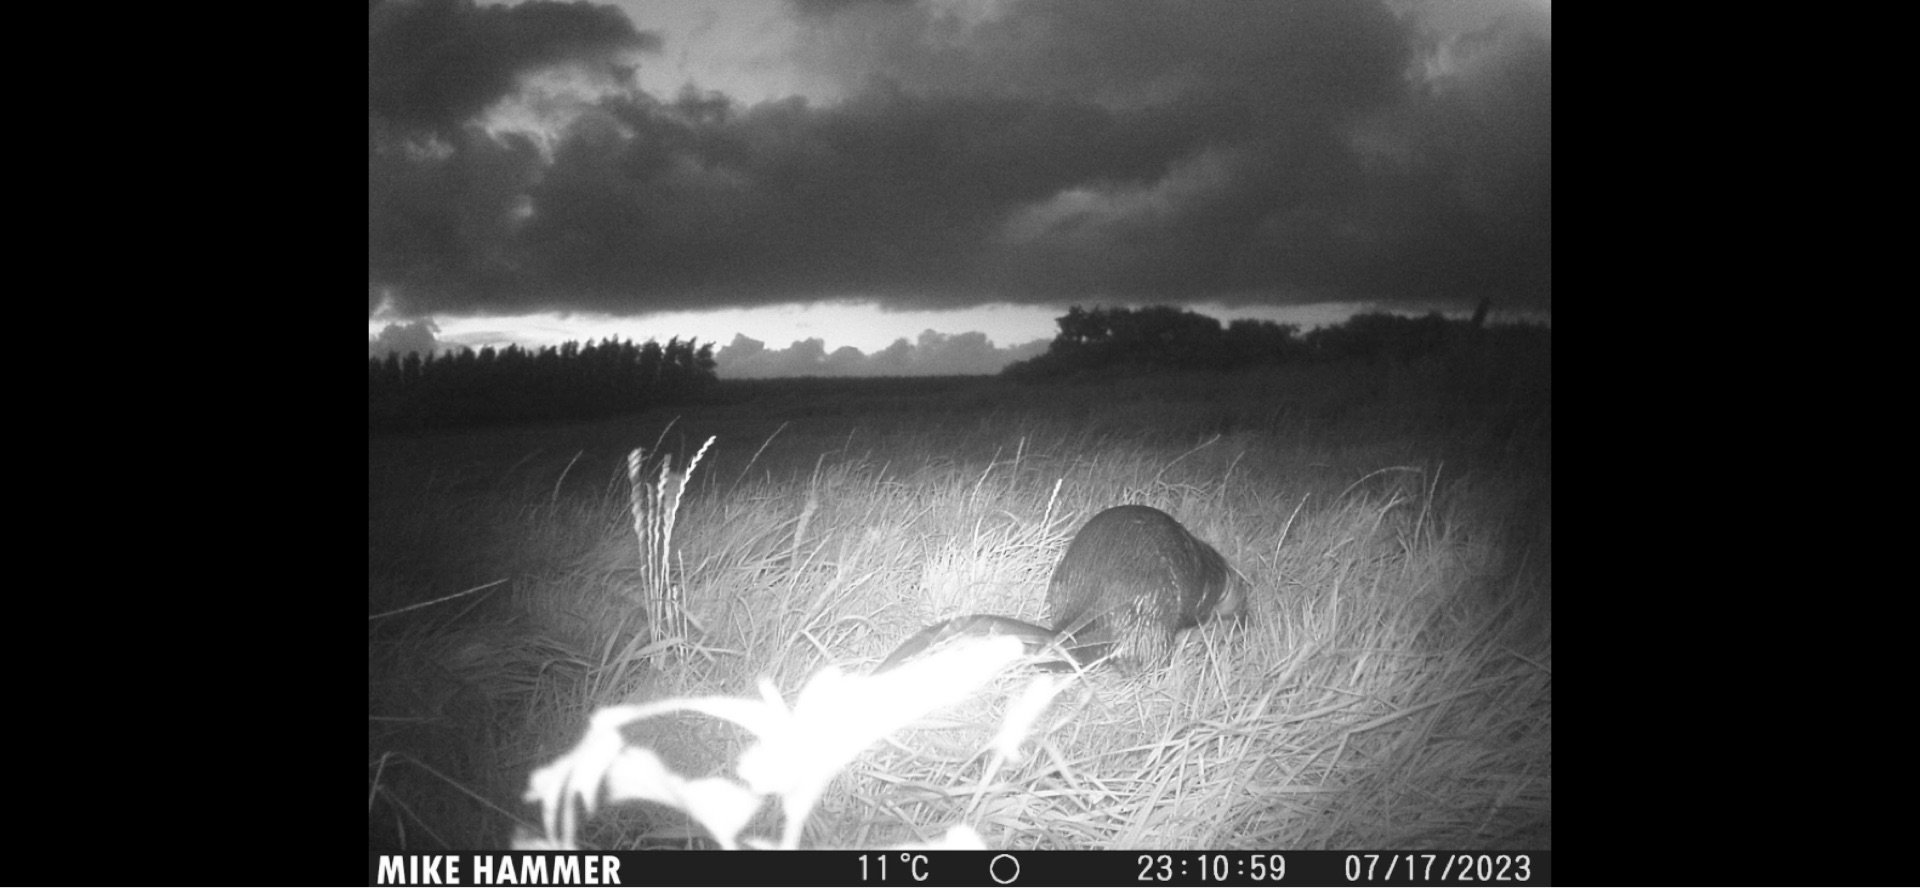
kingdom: Animalia
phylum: Chordata
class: Mammalia
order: Carnivora
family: Mustelidae
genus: Lutra
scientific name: Lutra lutra
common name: Odder
